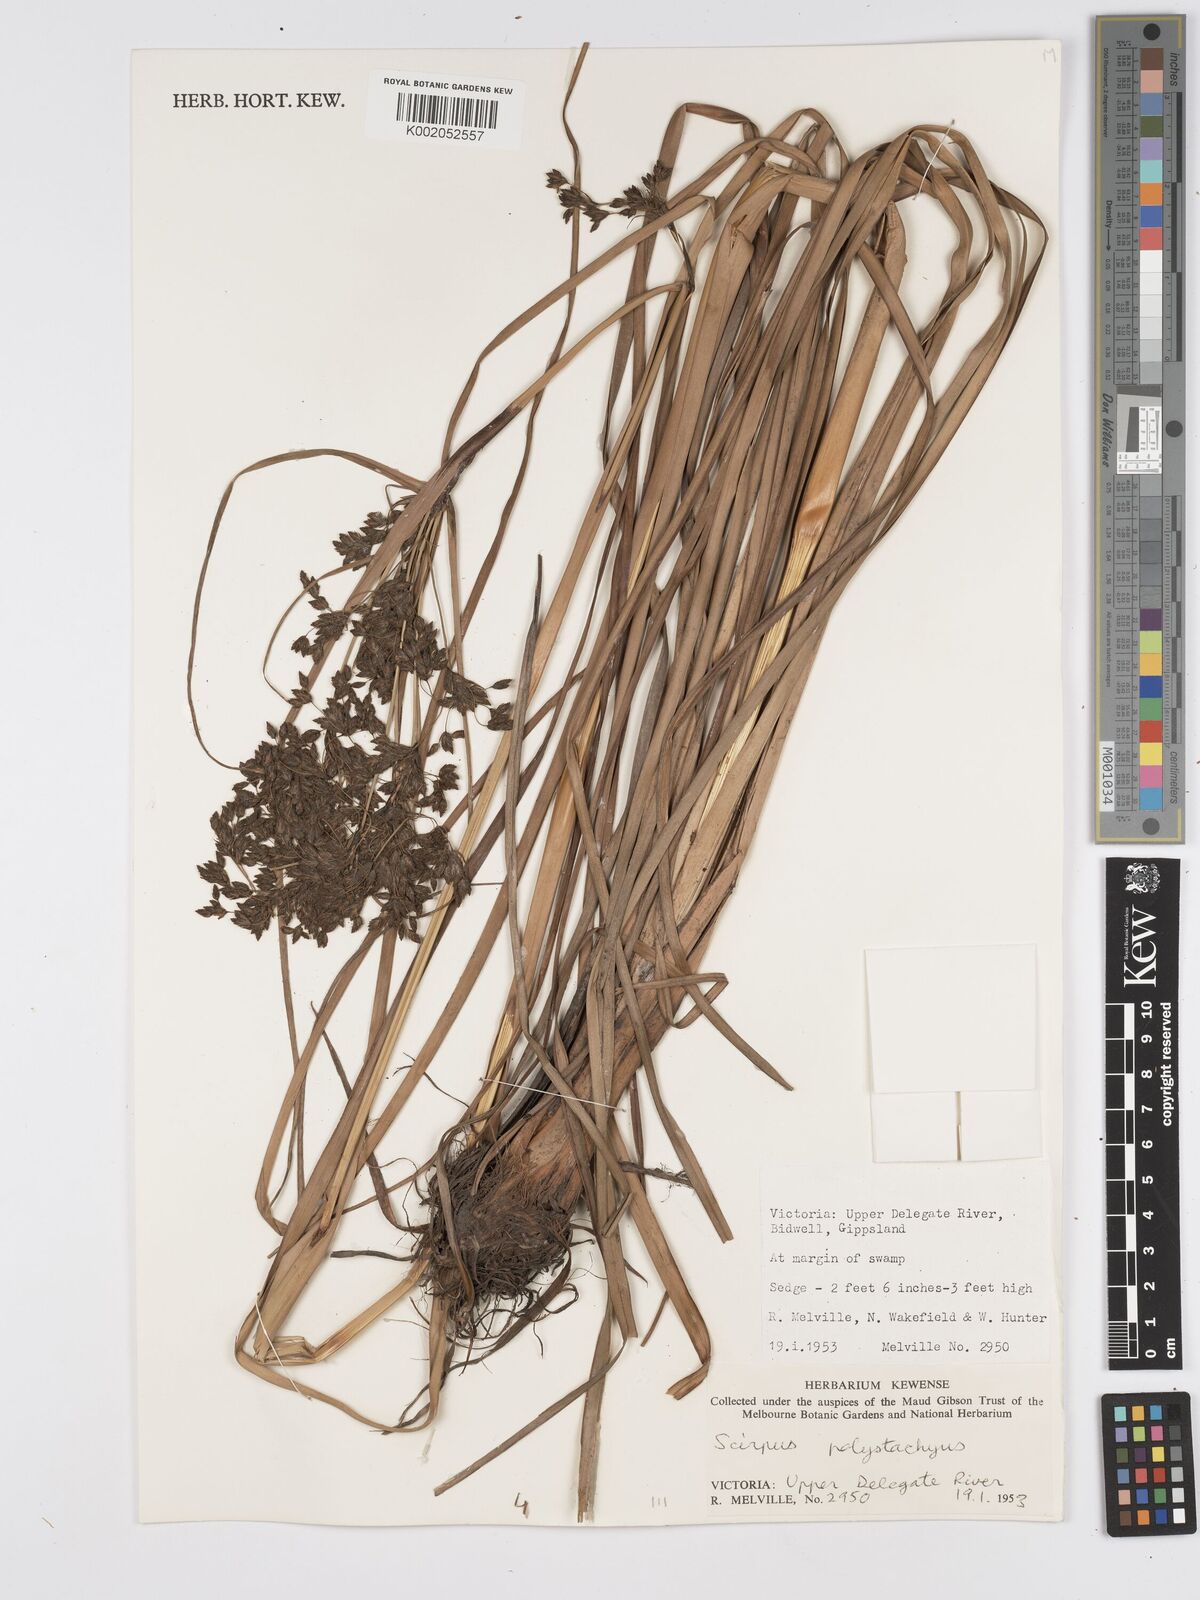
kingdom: Plantae
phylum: Tracheophyta
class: Liliopsida
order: Poales
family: Cyperaceae
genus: Scirpus
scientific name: Scirpus polystachyus
